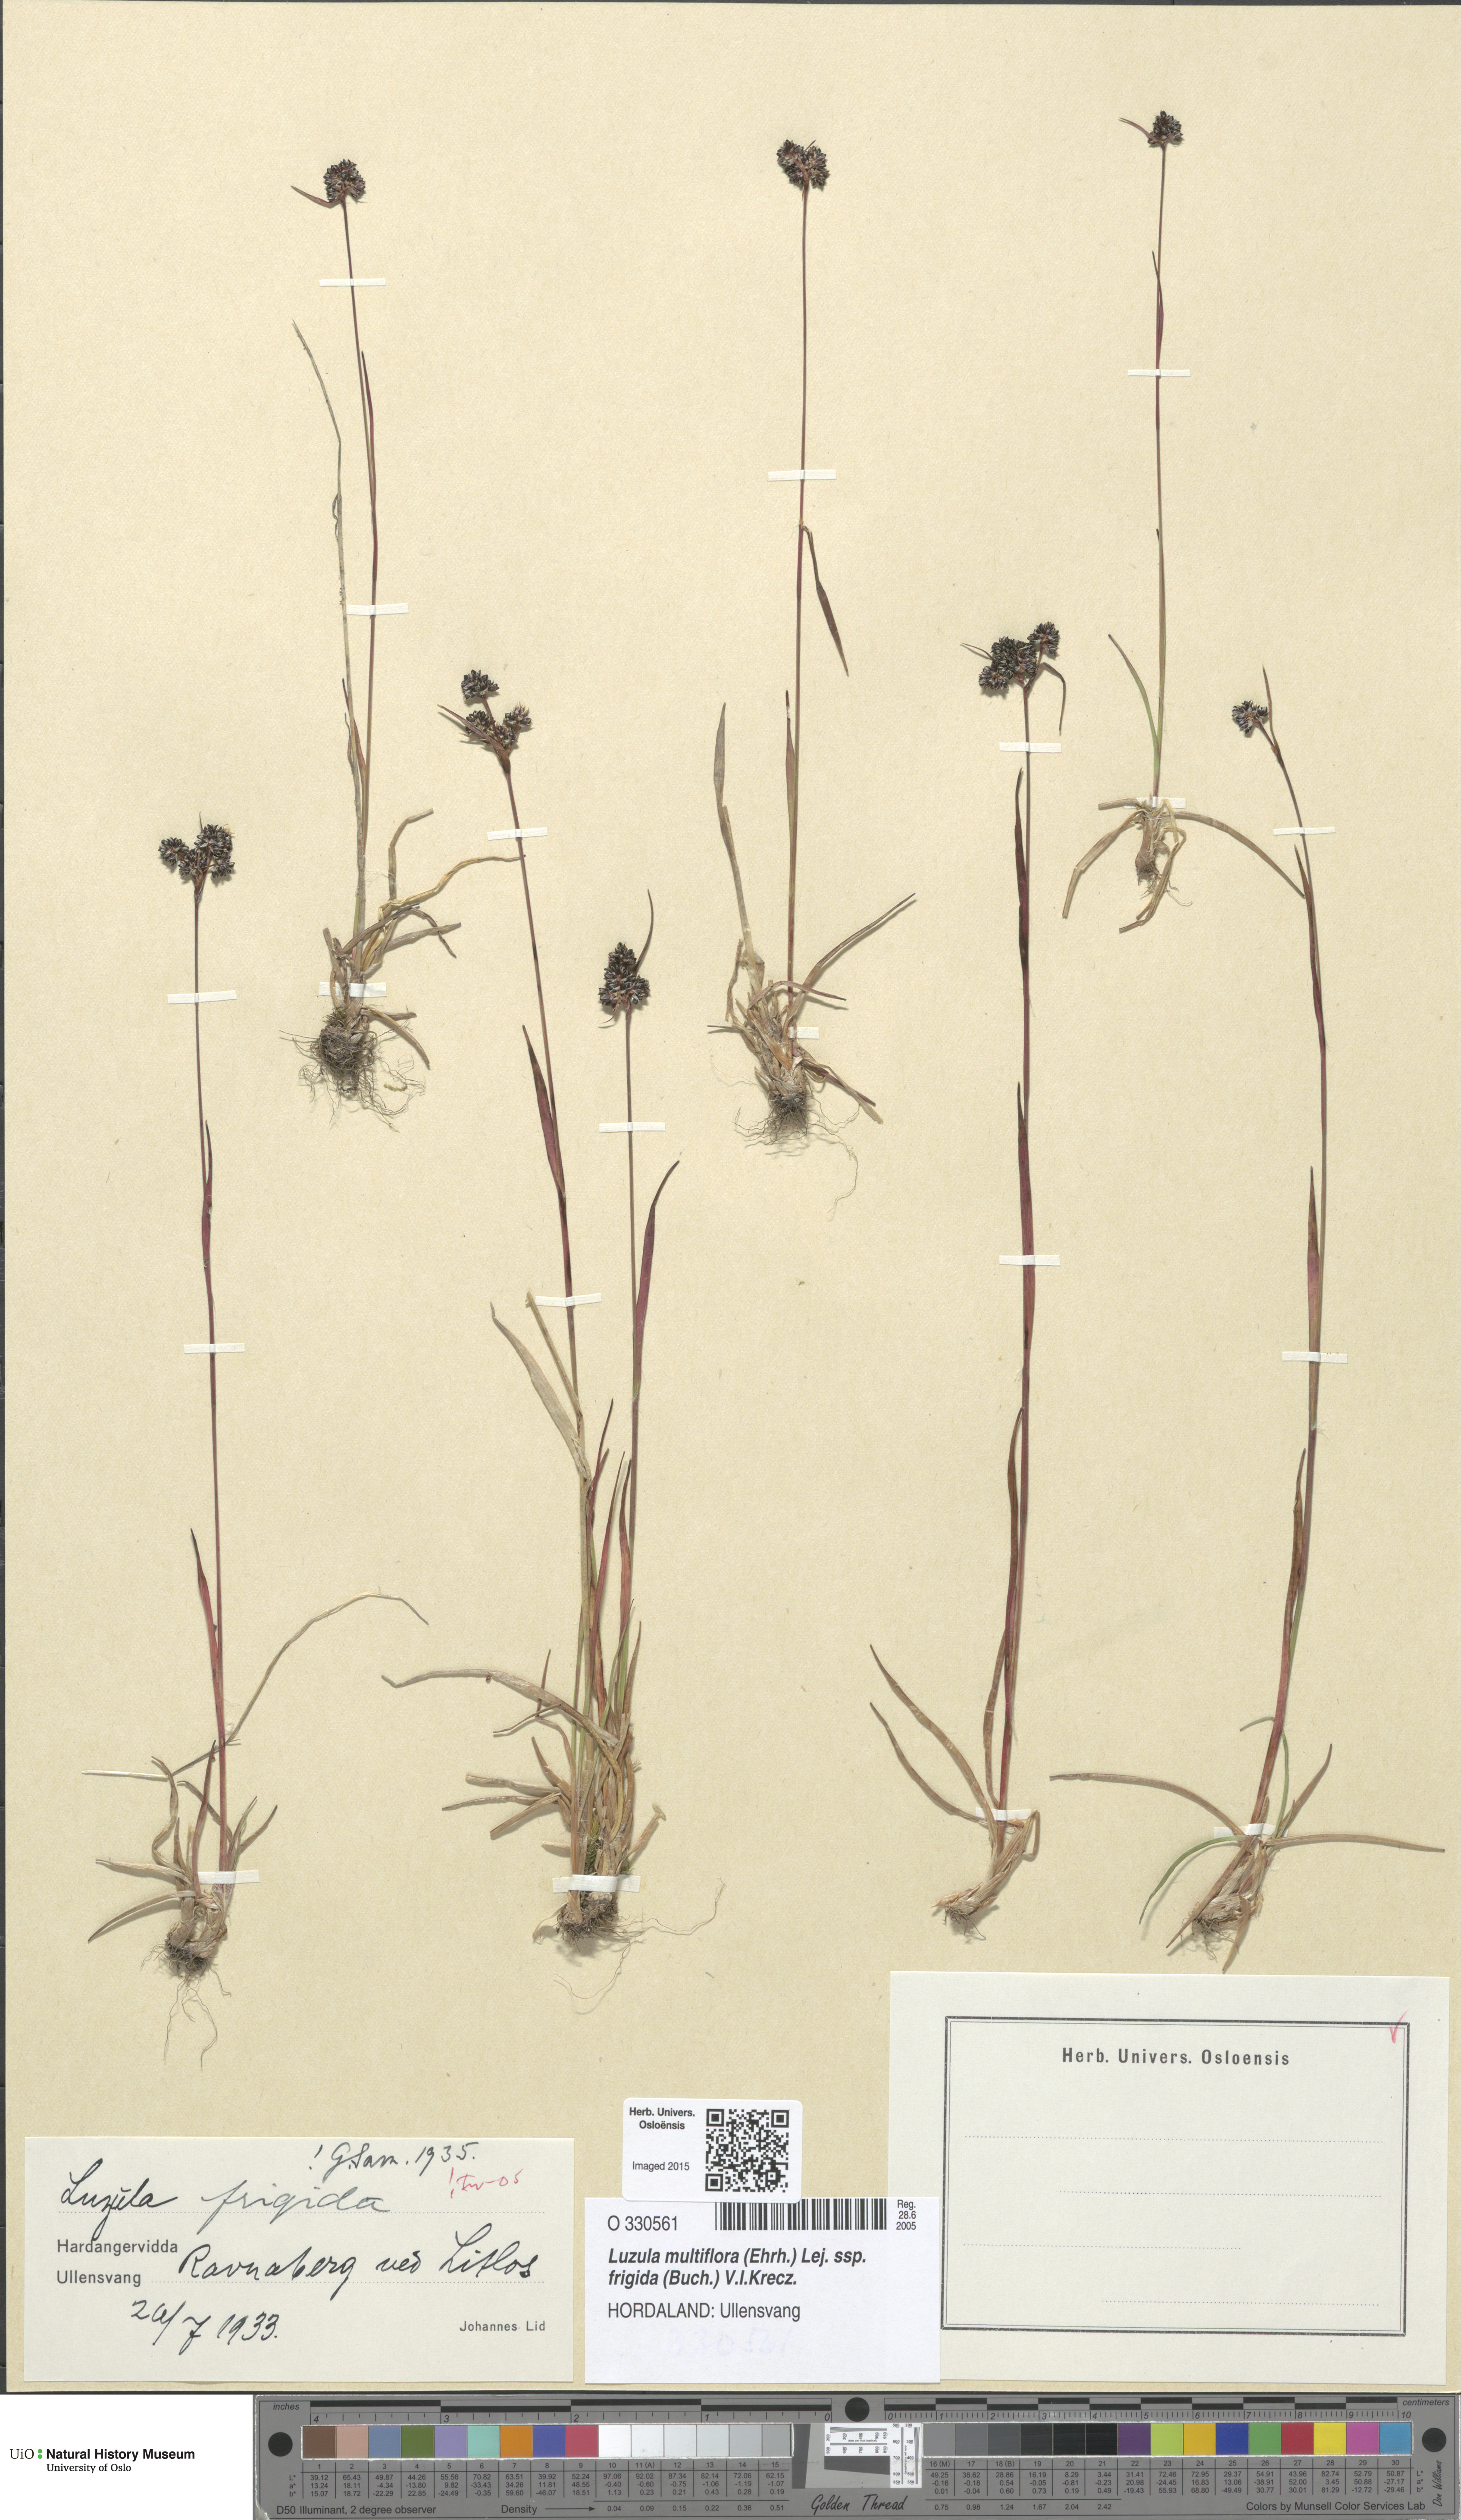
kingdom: Plantae
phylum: Tracheophyta
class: Liliopsida
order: Poales
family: Juncaceae
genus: Luzula
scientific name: Luzula multiflora
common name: Heath wood-rush
